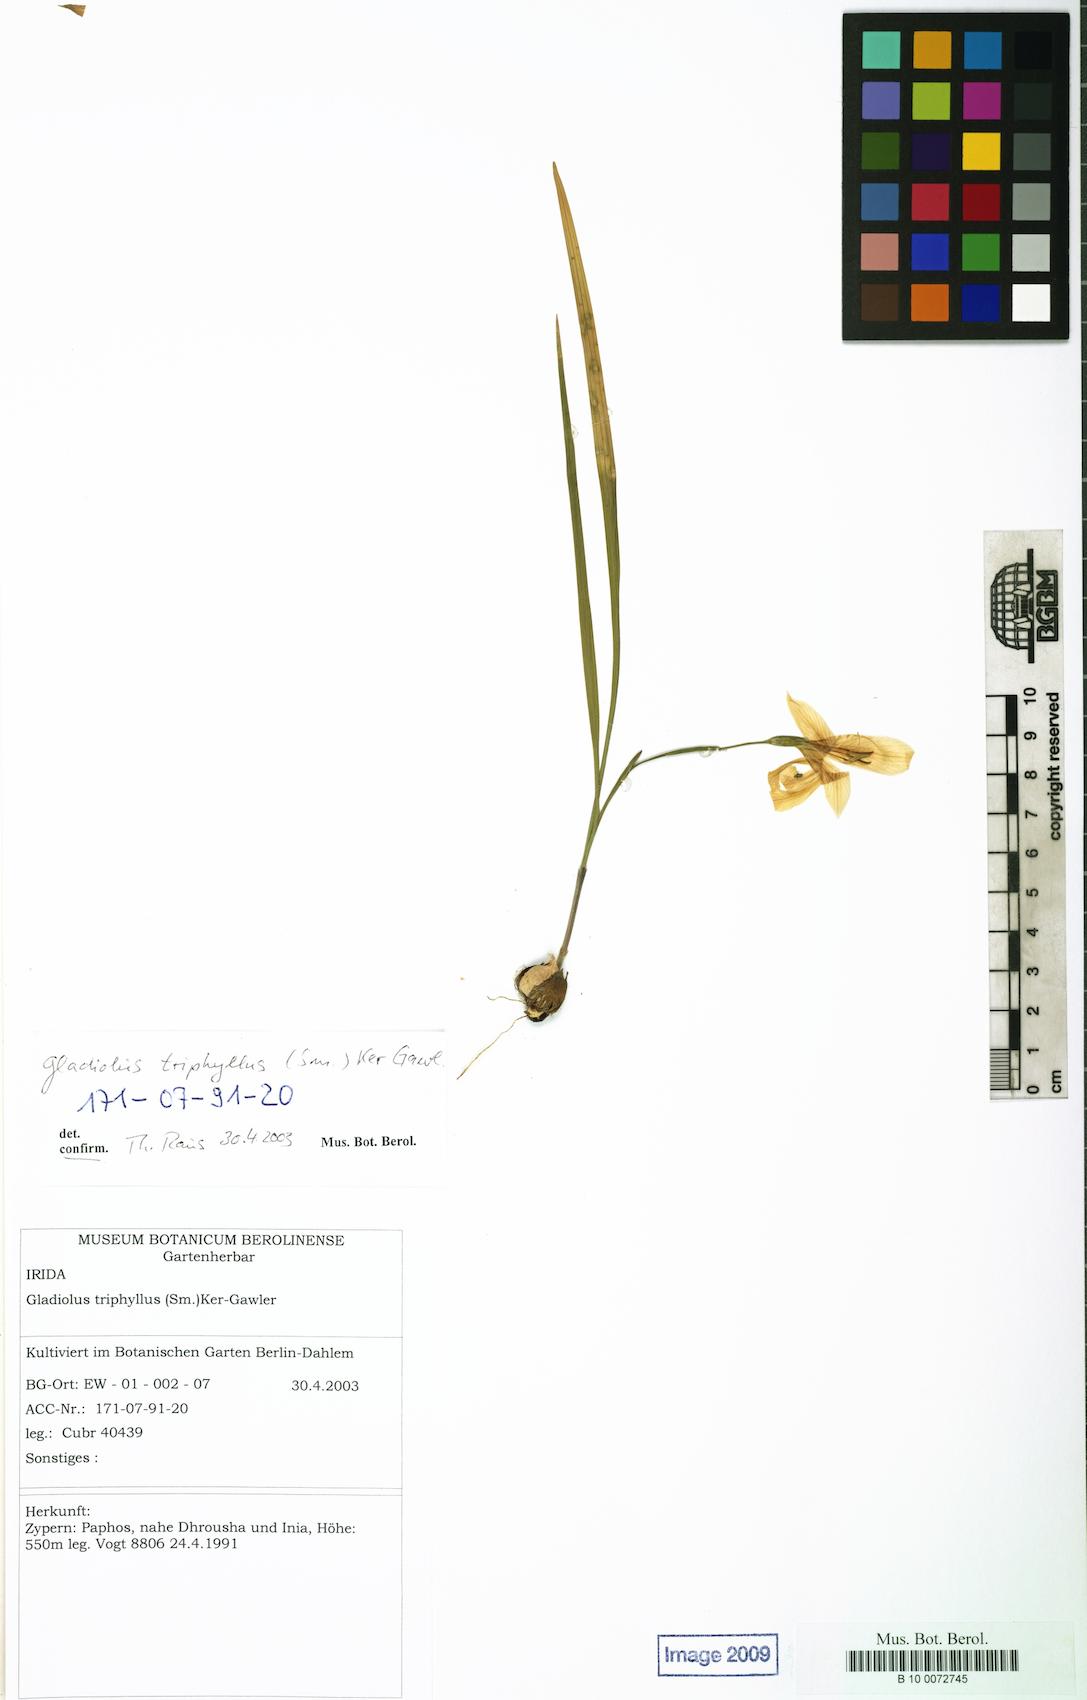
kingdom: Plantae
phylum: Tracheophyta
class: Liliopsida
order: Asparagales
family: Iridaceae
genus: Gladiolus
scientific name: Gladiolus triphyllus
